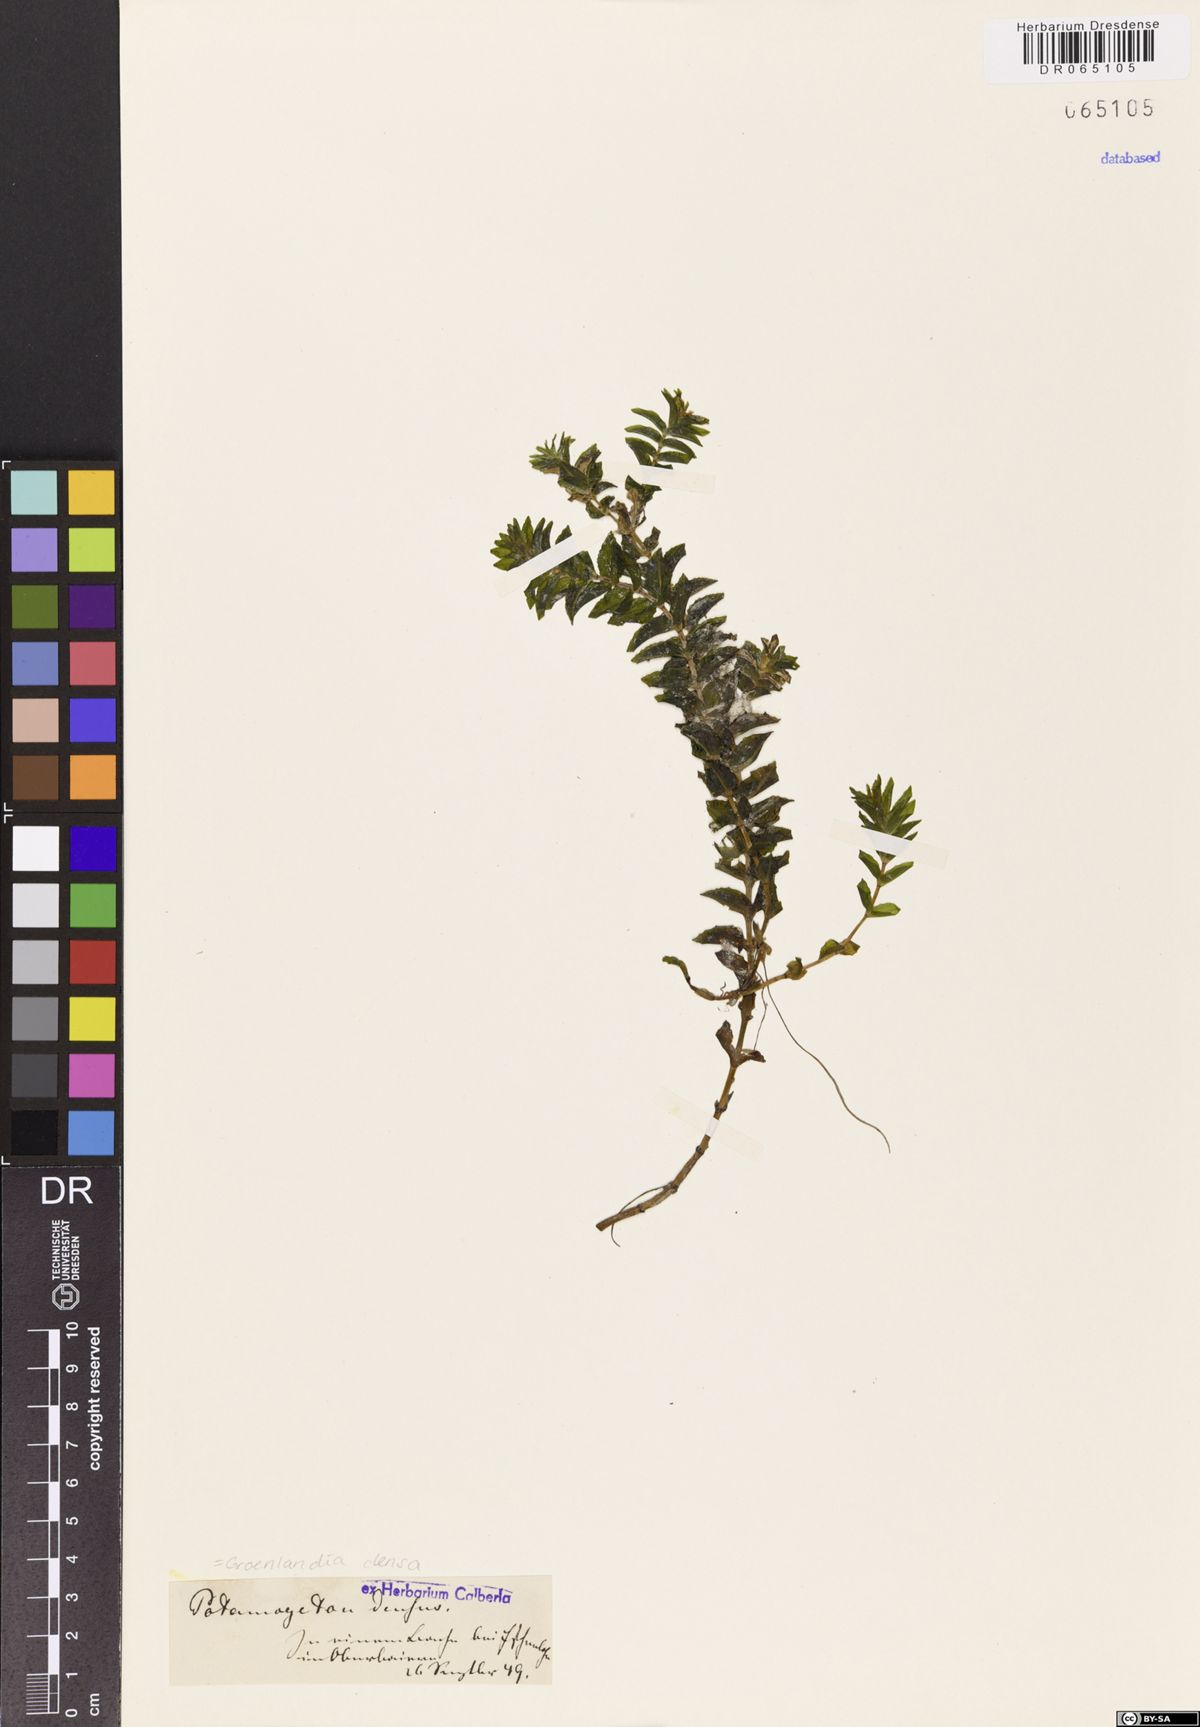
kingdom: Plantae
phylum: Tracheophyta
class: Liliopsida
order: Alismatales
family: Potamogetonaceae
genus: Groenlandia
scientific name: Groenlandia densa
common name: Opposite-leaved pondweed
